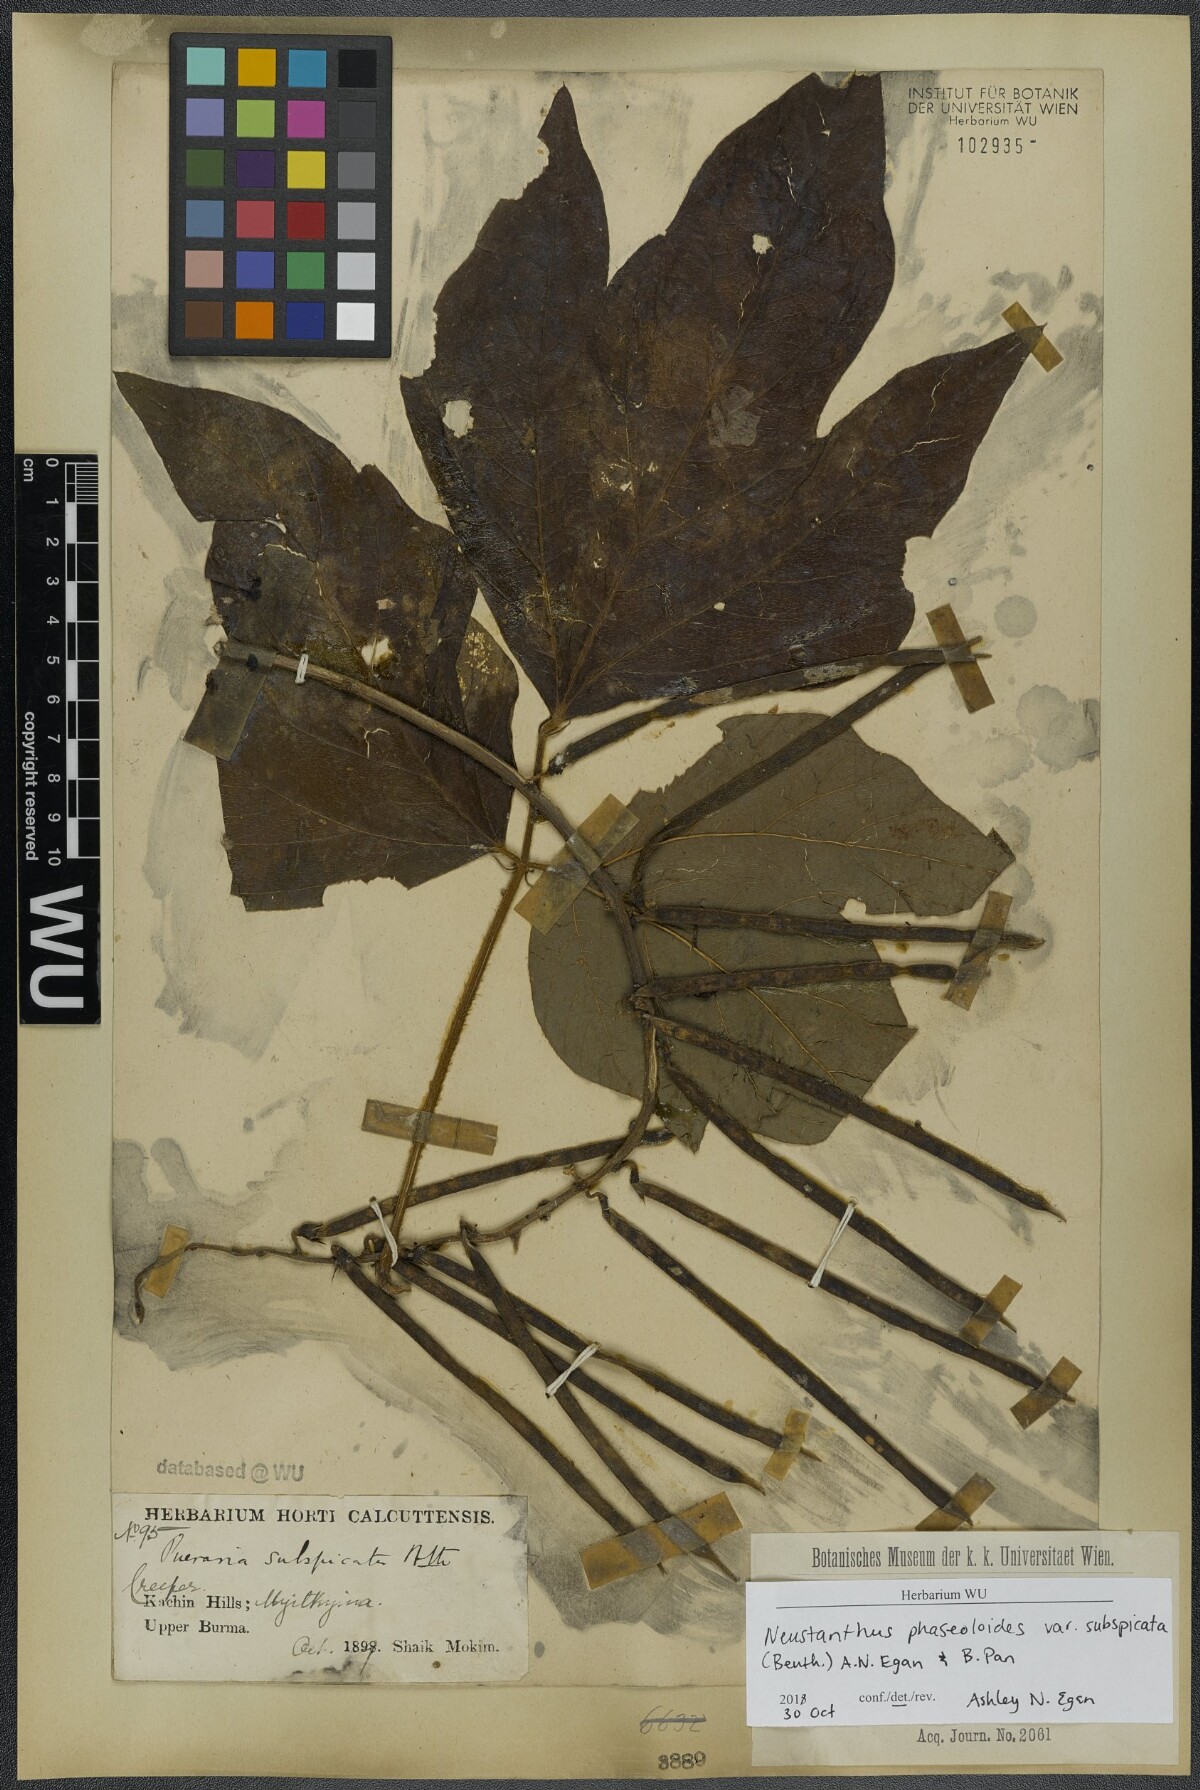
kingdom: Plantae
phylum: Tracheophyta
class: Magnoliopsida
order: Fabales
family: Fabaceae
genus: Neustanthus
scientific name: Neustanthus phaseoloides
